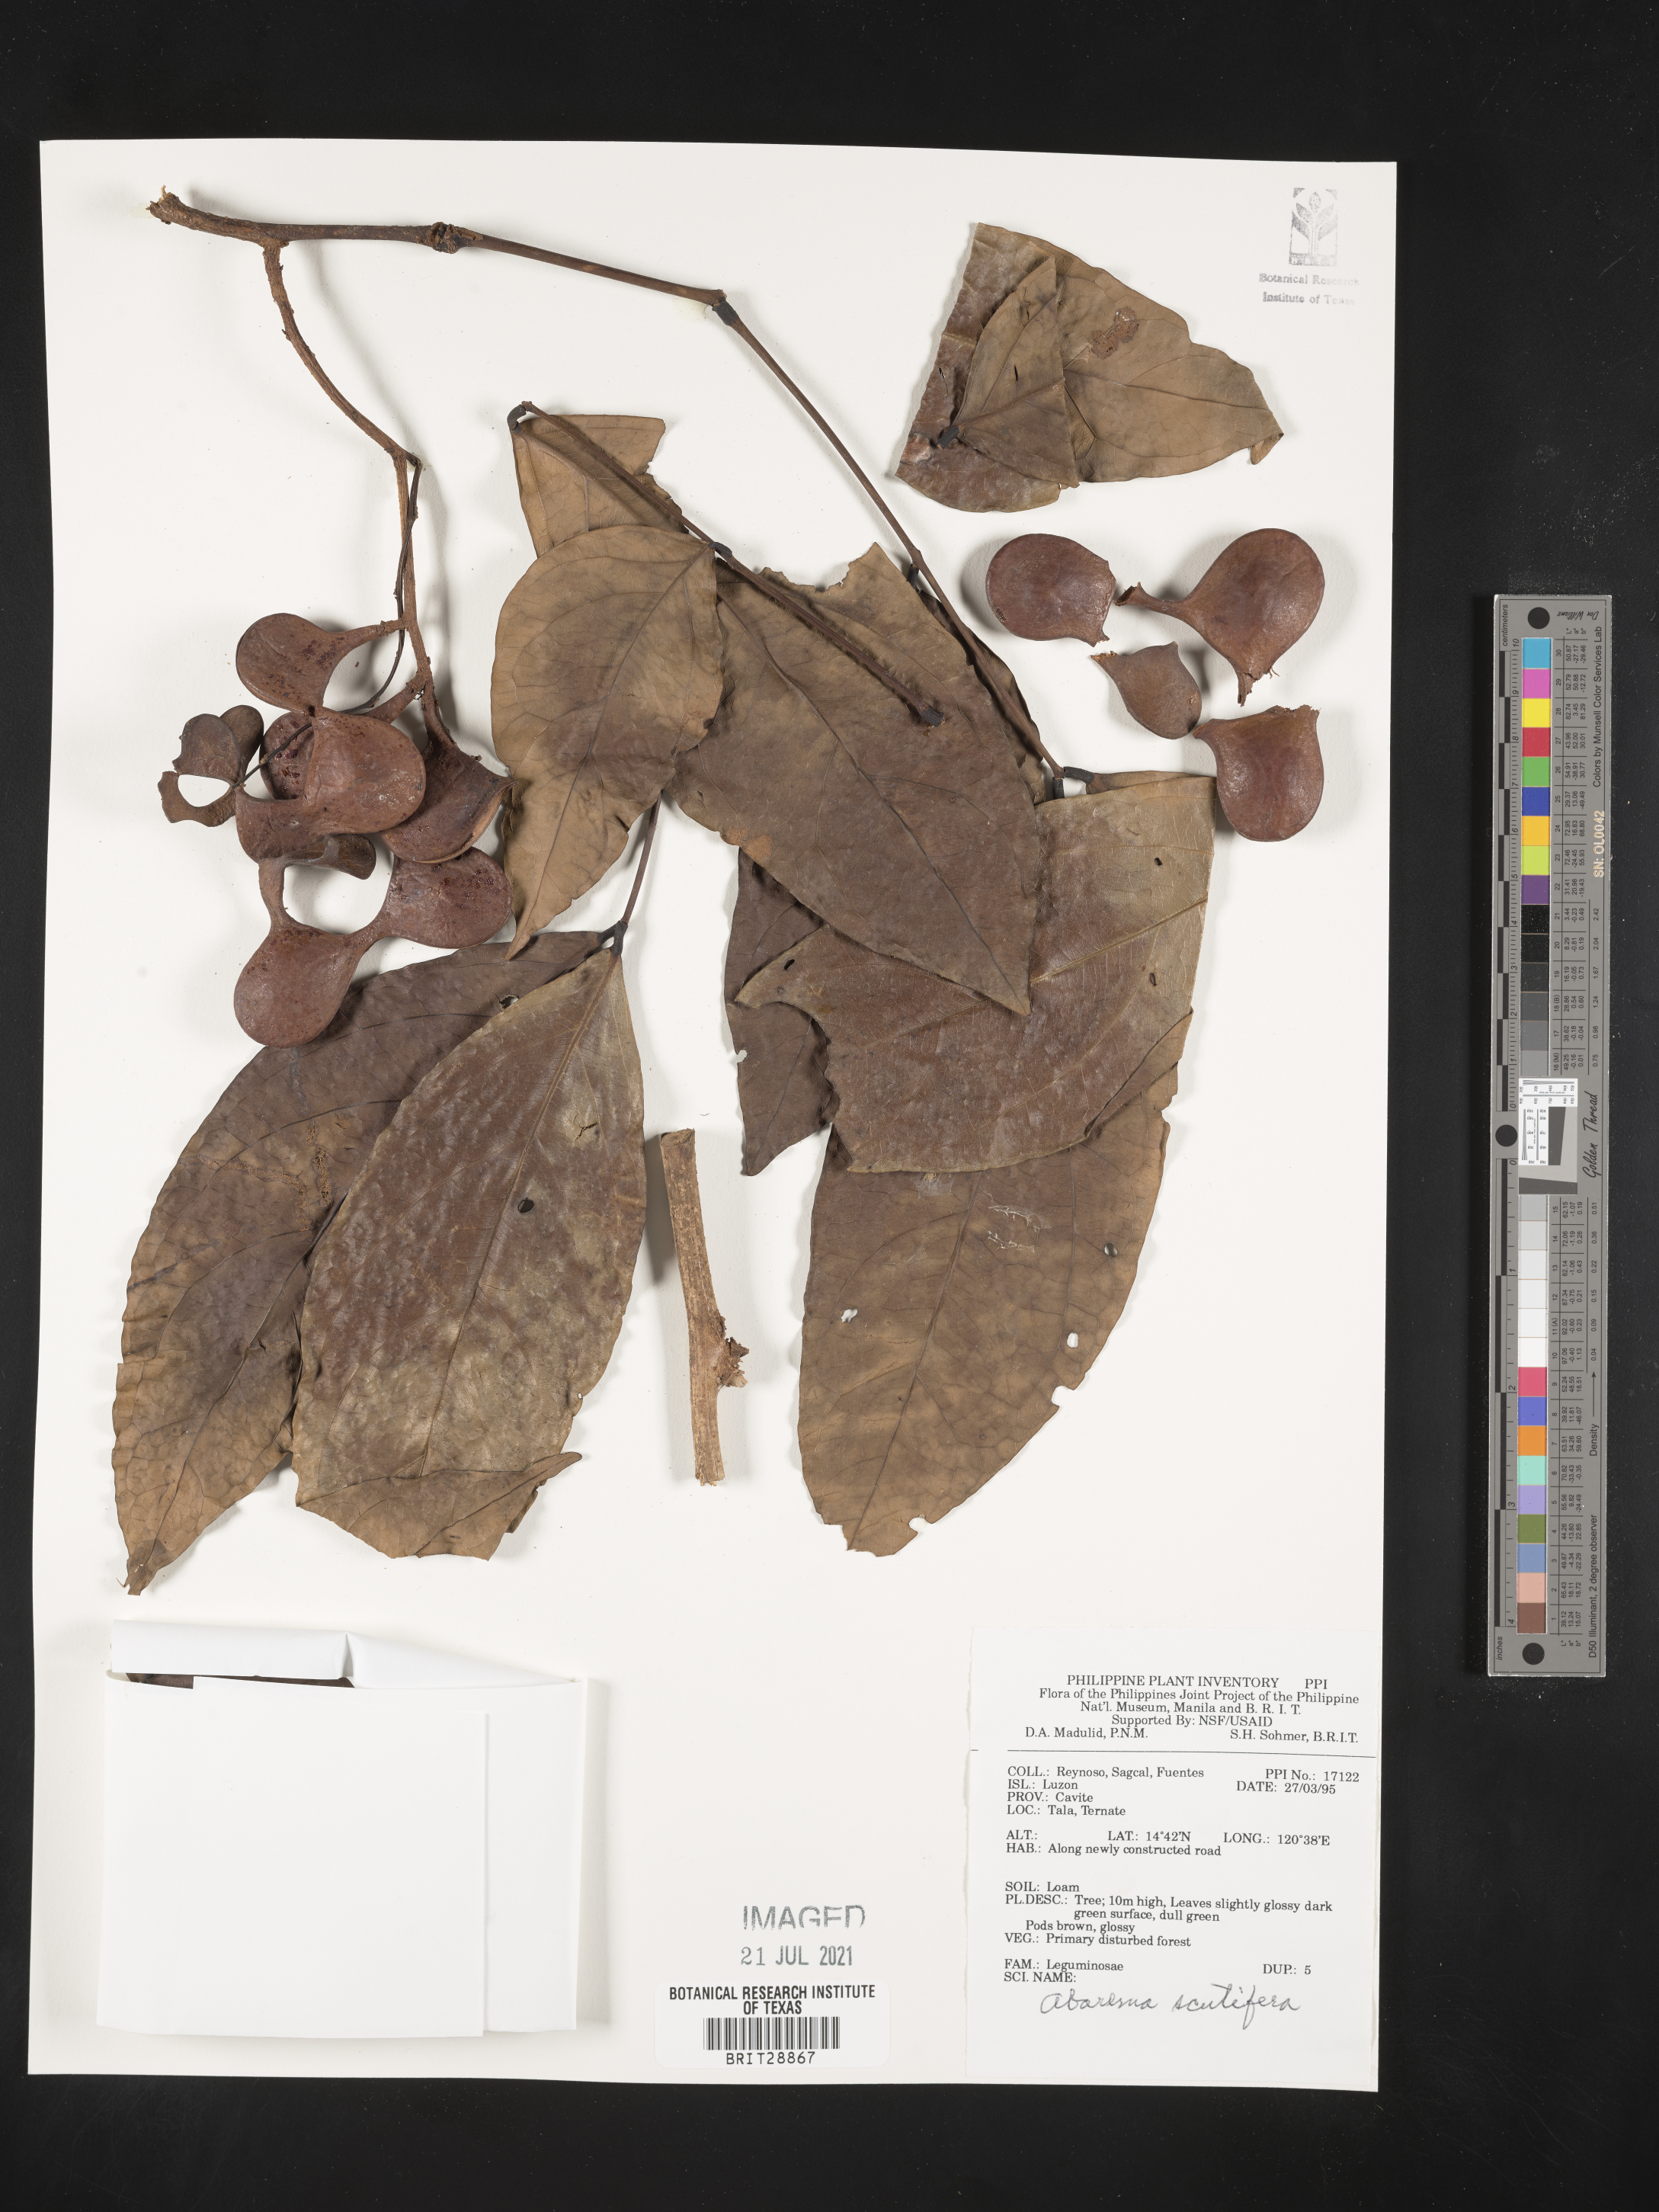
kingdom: Plantae
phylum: Tracheophyta
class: Magnoliopsida
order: Fabales
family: Fabaceae
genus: Archidendron
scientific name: Archidendron scutiferum
